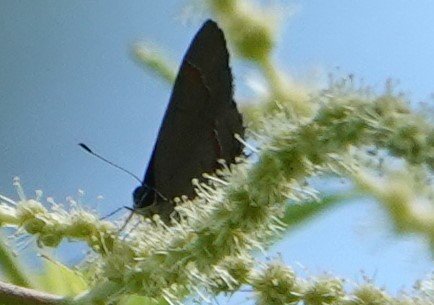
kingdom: Animalia
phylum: Arthropoda
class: Insecta
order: Lepidoptera
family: Lycaenidae
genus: Calycopis
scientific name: Calycopis cecrops
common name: Red-banded Hairstreak
